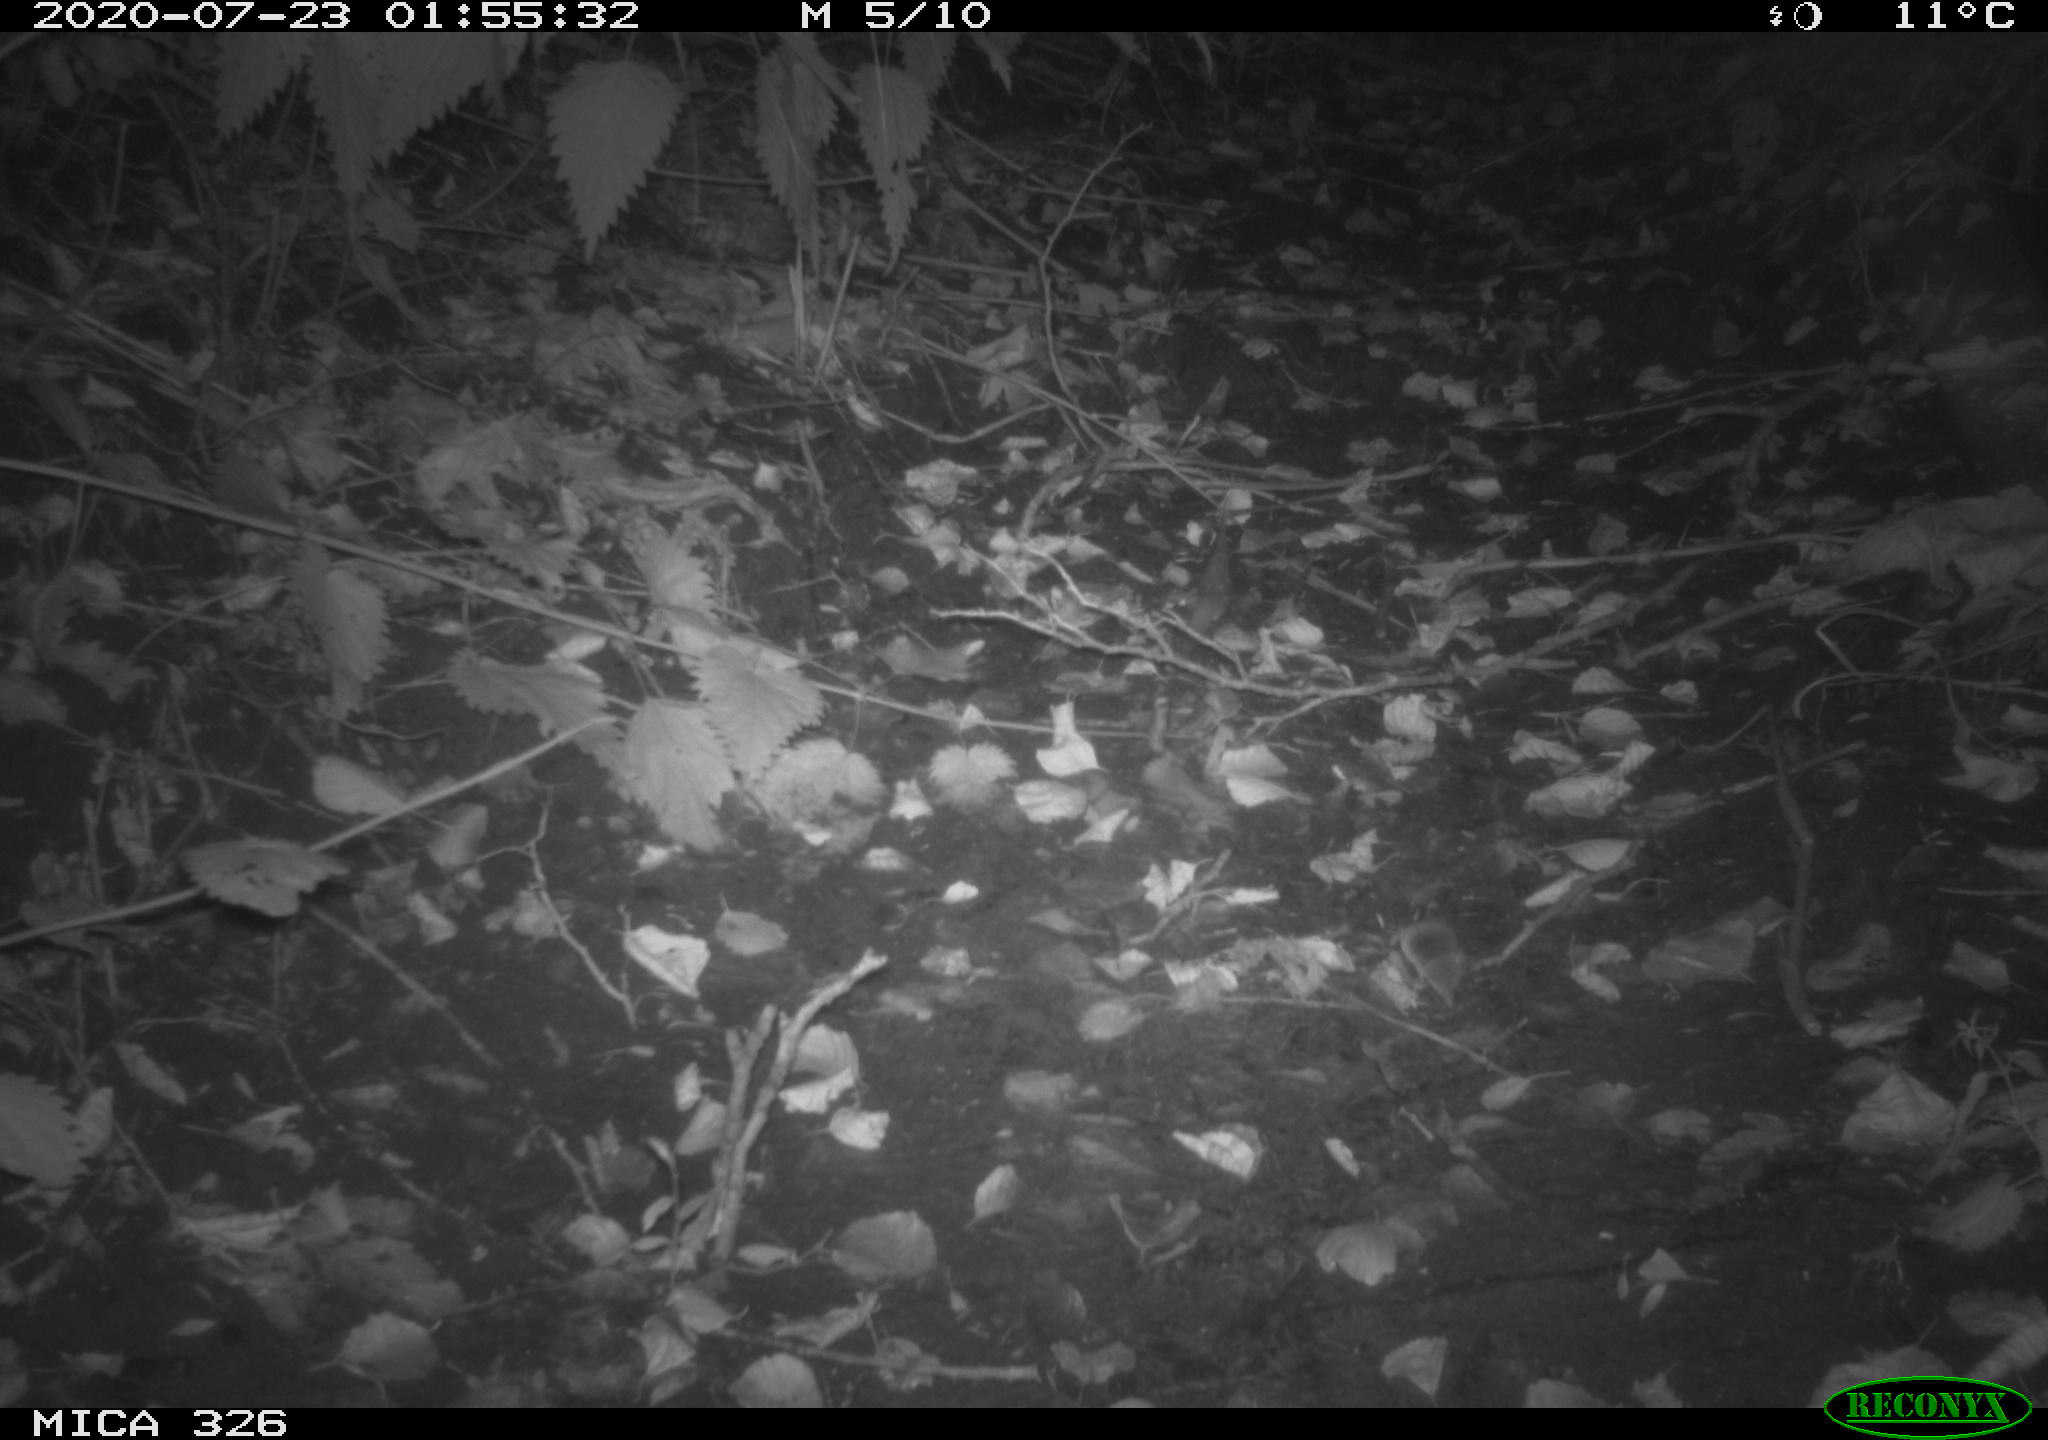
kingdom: Animalia
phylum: Chordata
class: Mammalia
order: Rodentia
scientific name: Rodentia
